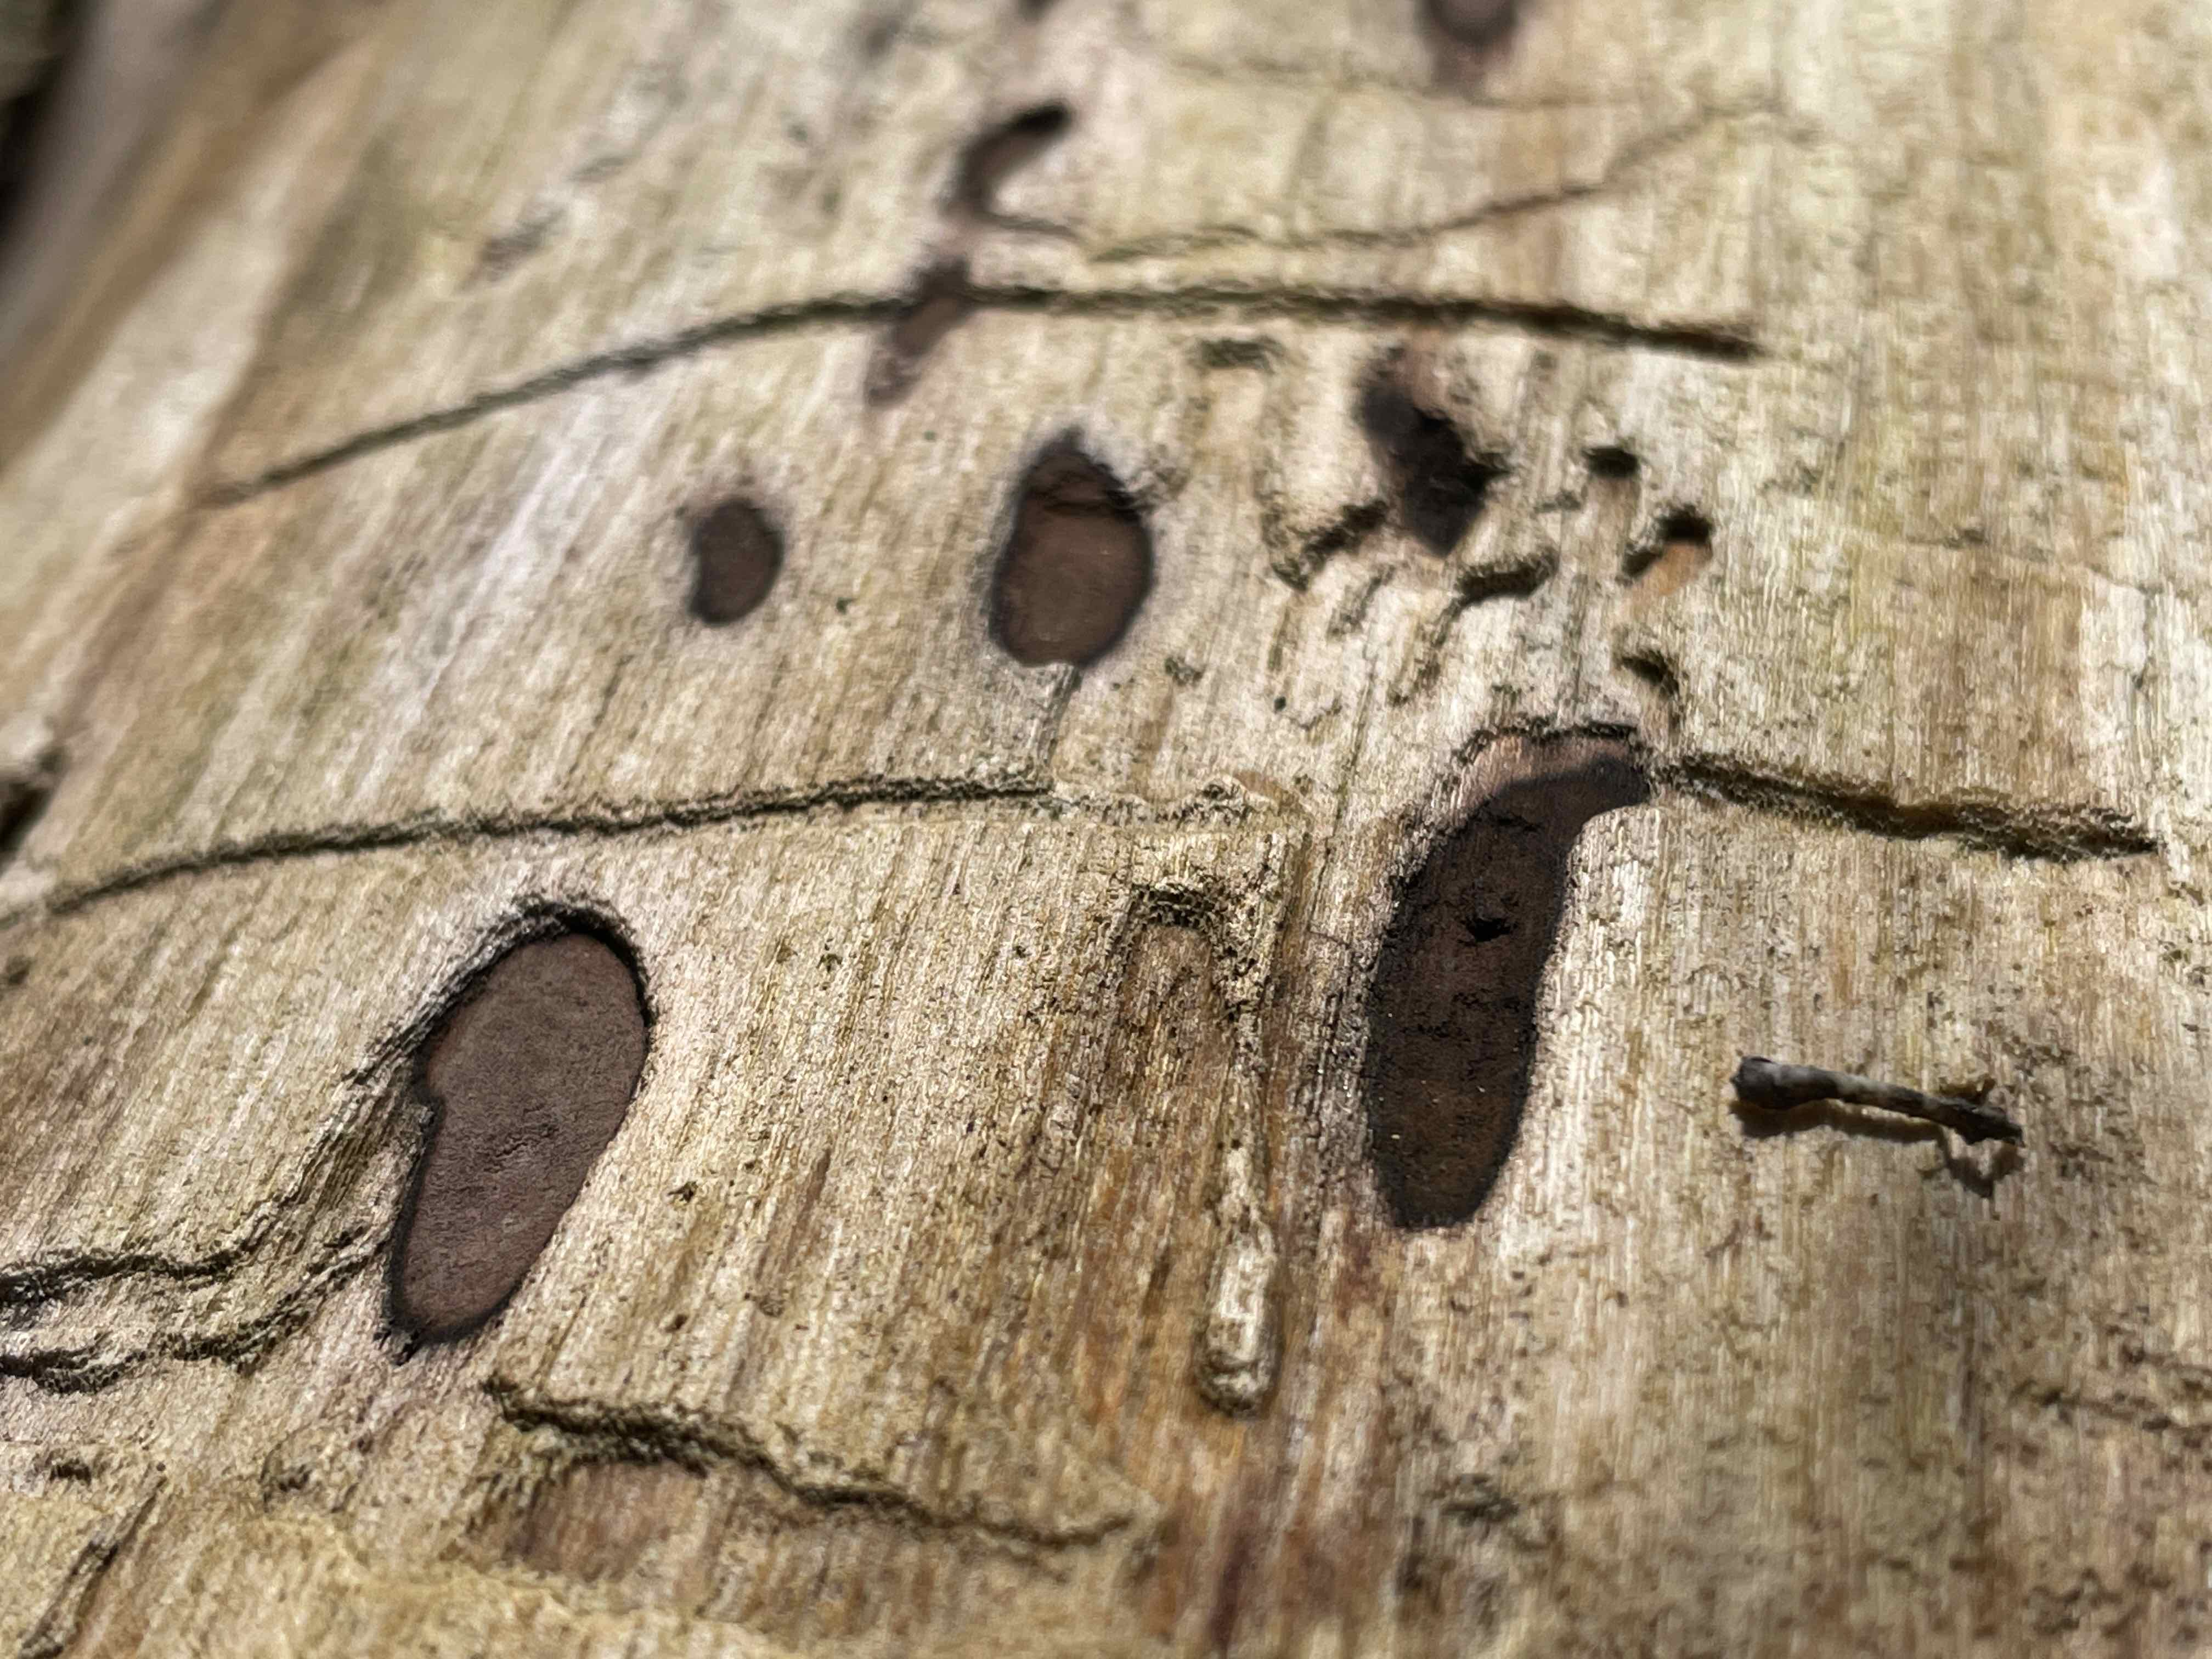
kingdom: Fungi
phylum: Ascomycota
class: Sordariomycetes
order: Xylariales
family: Hypoxylaceae
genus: Hypoxylon
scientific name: Hypoxylon petriniae
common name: nedsænket kulbær
